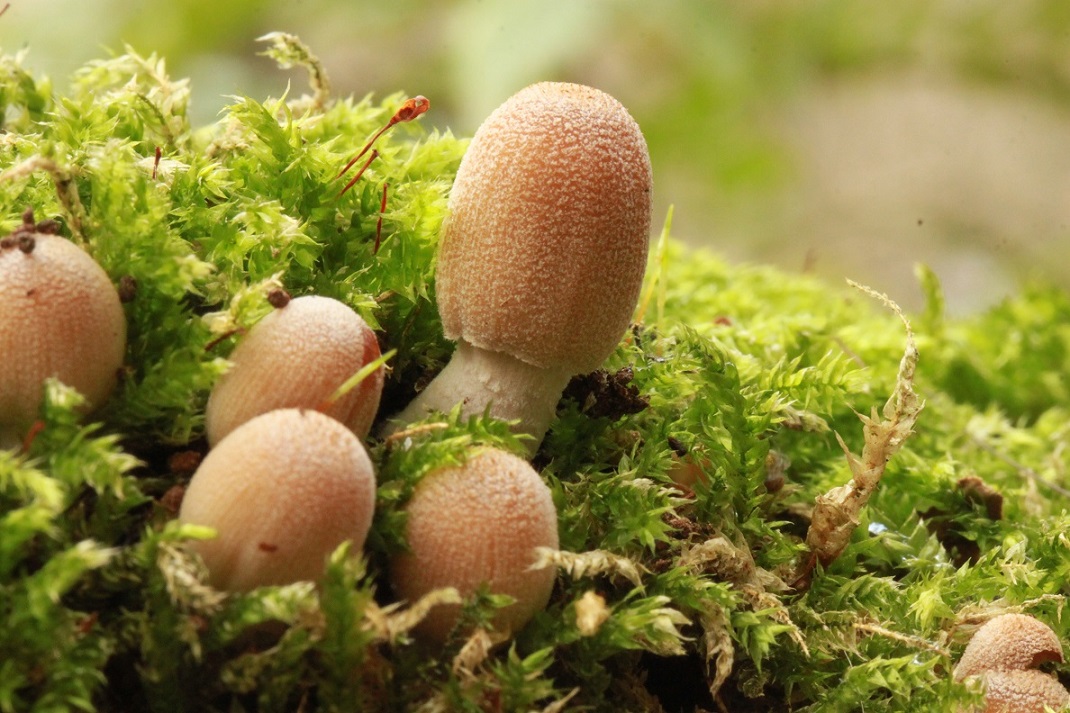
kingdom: Fungi
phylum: Basidiomycota
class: Agaricomycetes
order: Agaricales
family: Psathyrellaceae
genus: Coprinellus
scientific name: Coprinellus micaceus
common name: glimmer-blækhat
